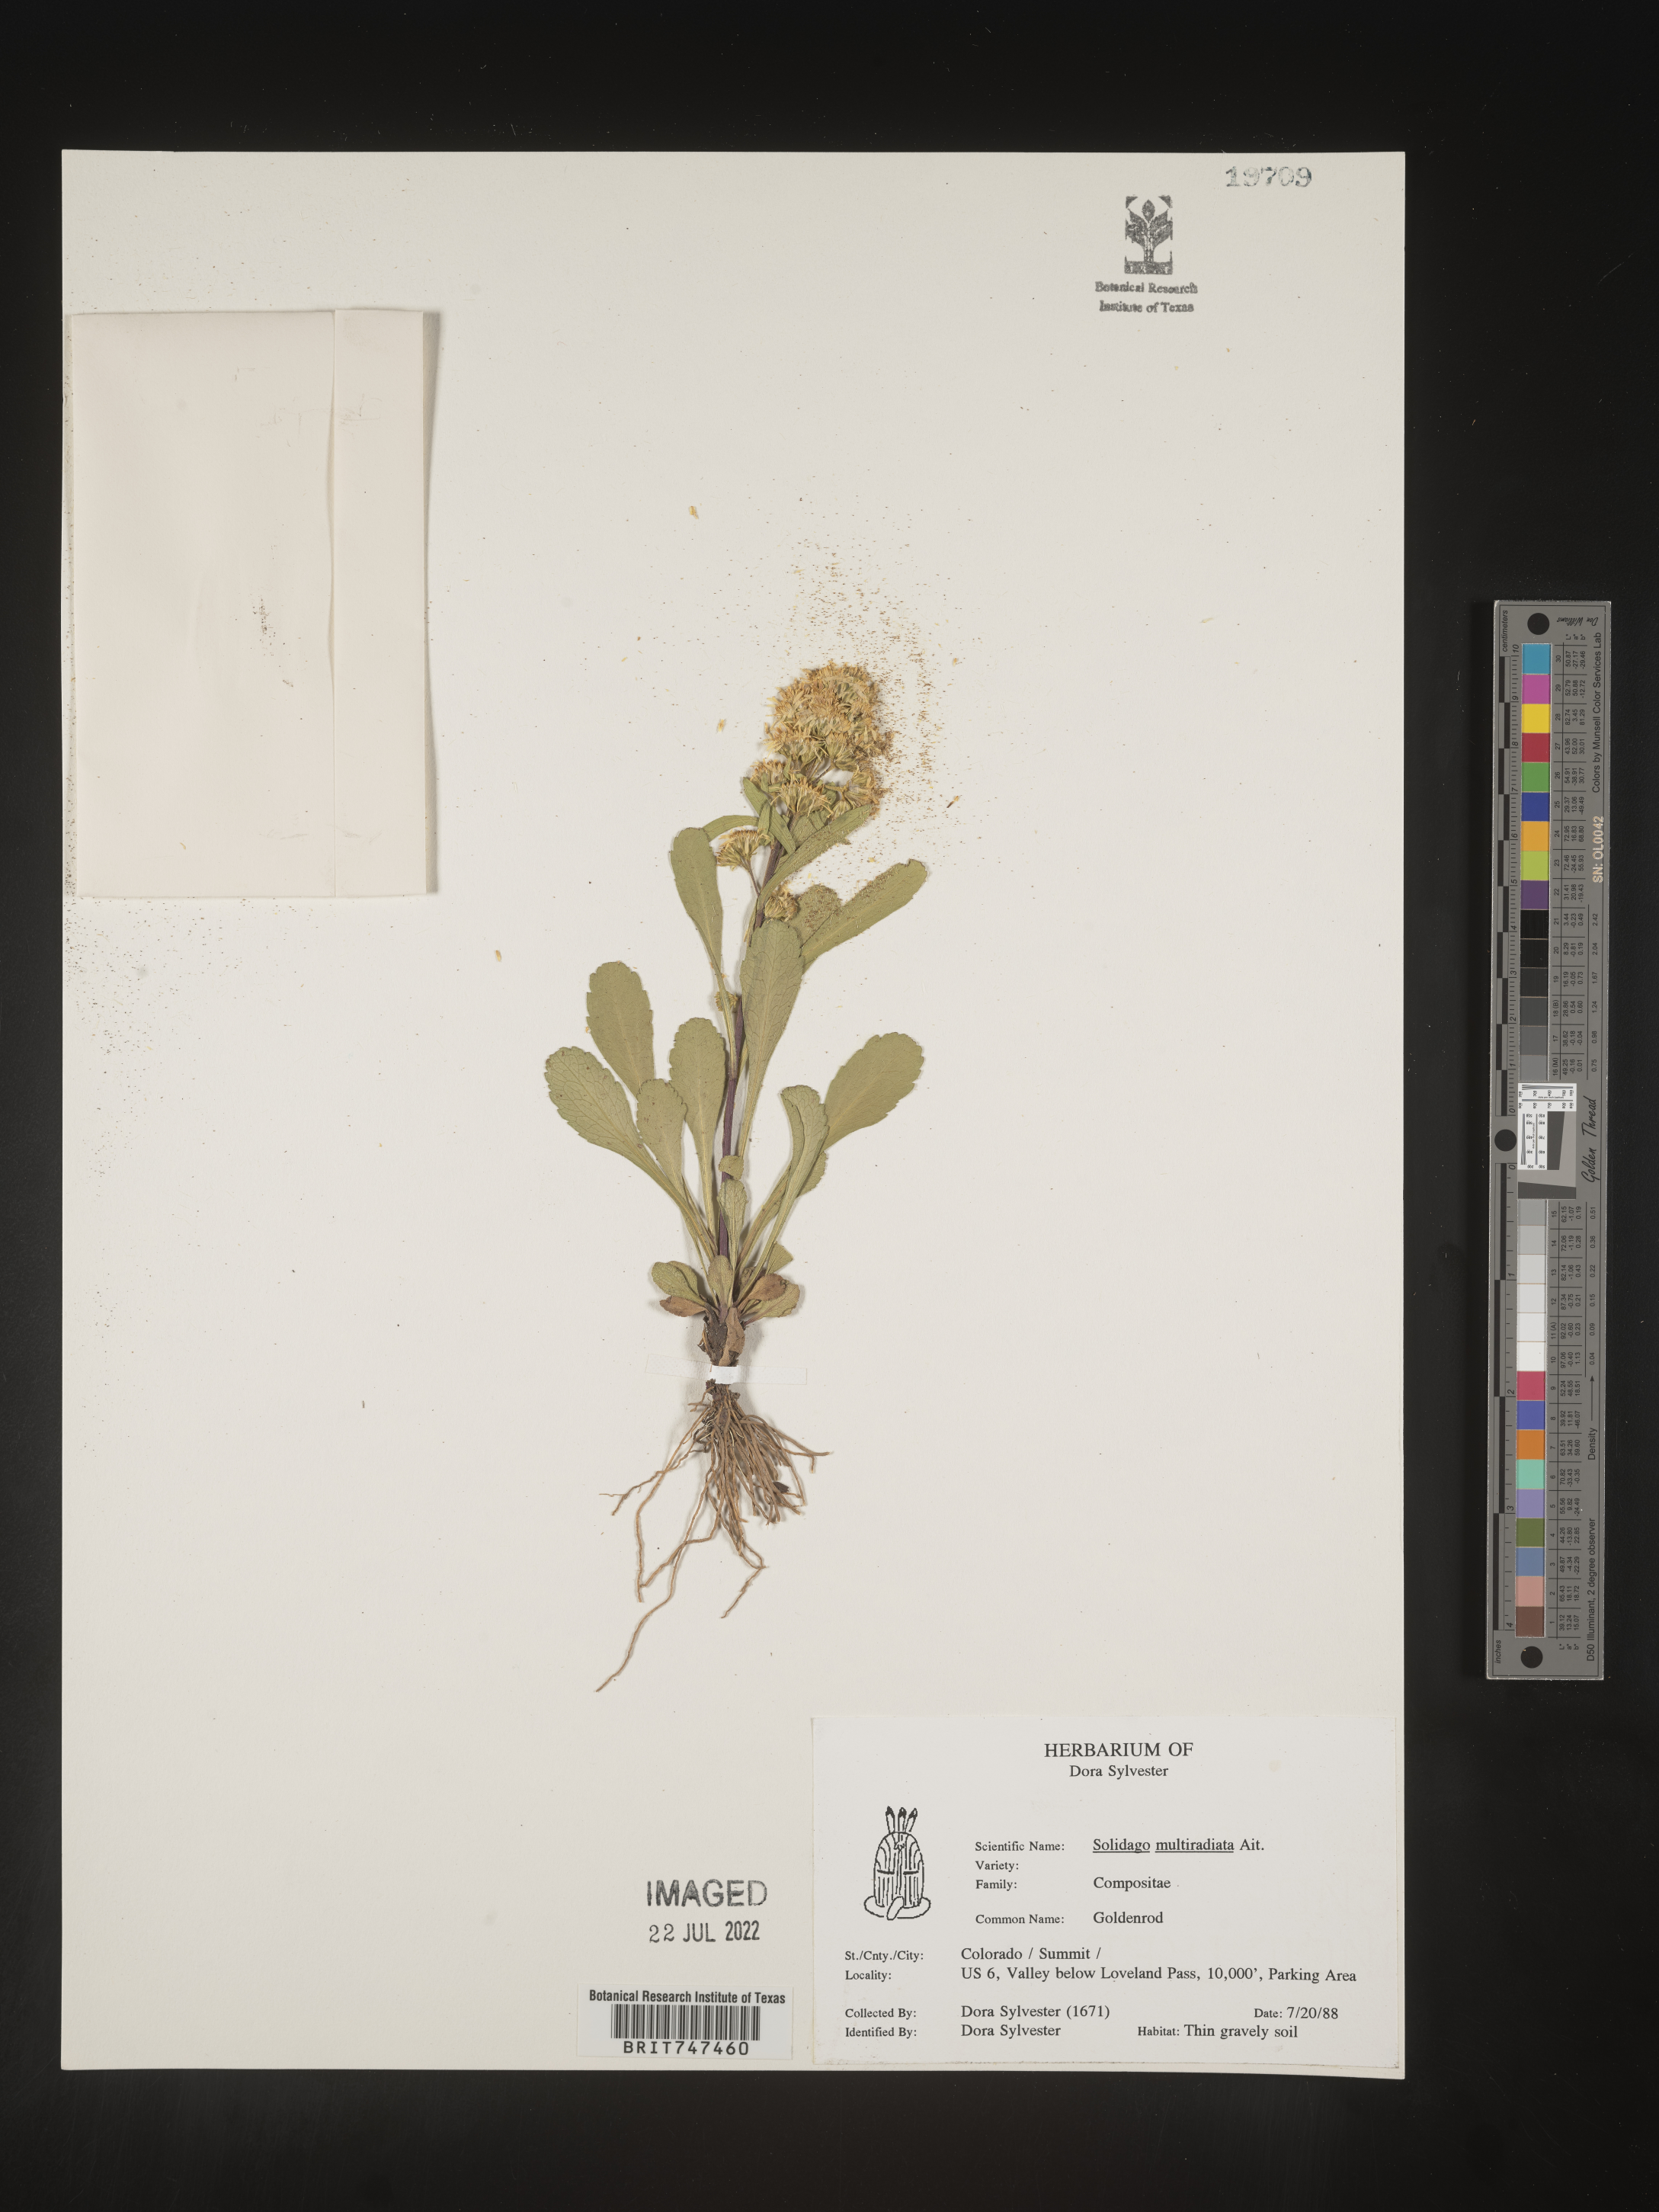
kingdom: Plantae
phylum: Tracheophyta
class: Magnoliopsida
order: Asterales
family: Asteraceae
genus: Solidago
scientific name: Solidago multiradiata
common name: Northern goldenrod
